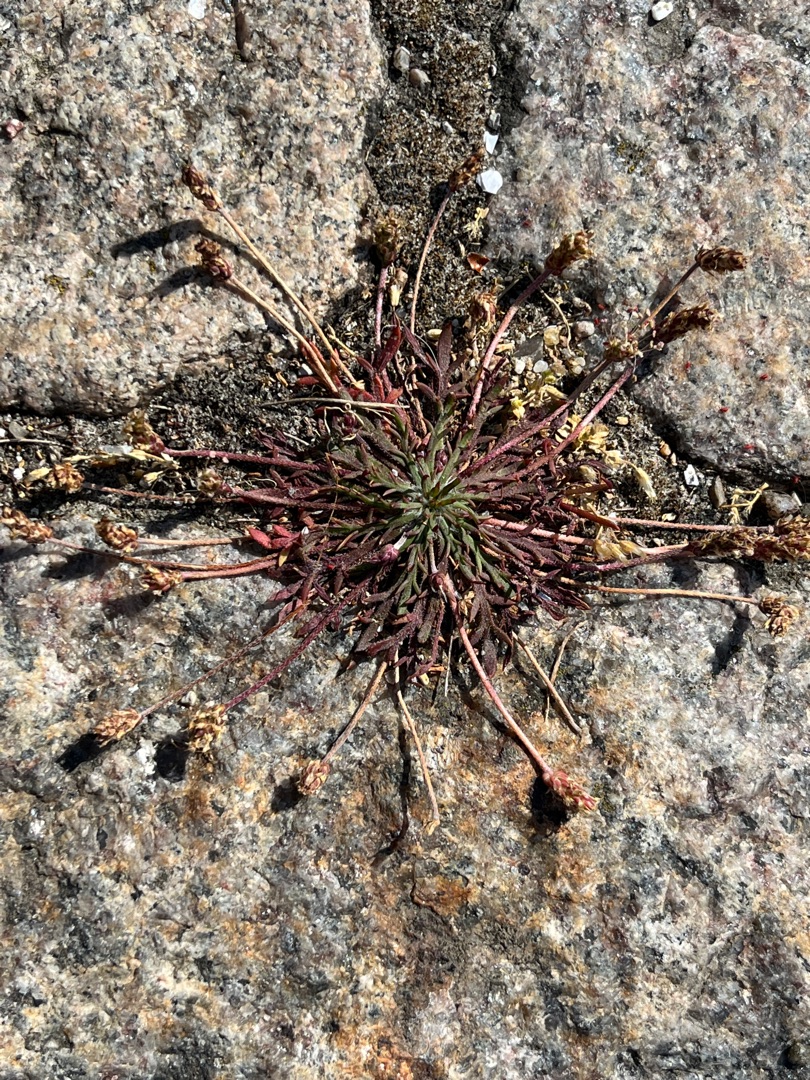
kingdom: Plantae
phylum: Tracheophyta
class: Magnoliopsida
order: Lamiales
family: Plantaginaceae
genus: Plantago
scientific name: Plantago coronopus
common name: Fliget vejbred
